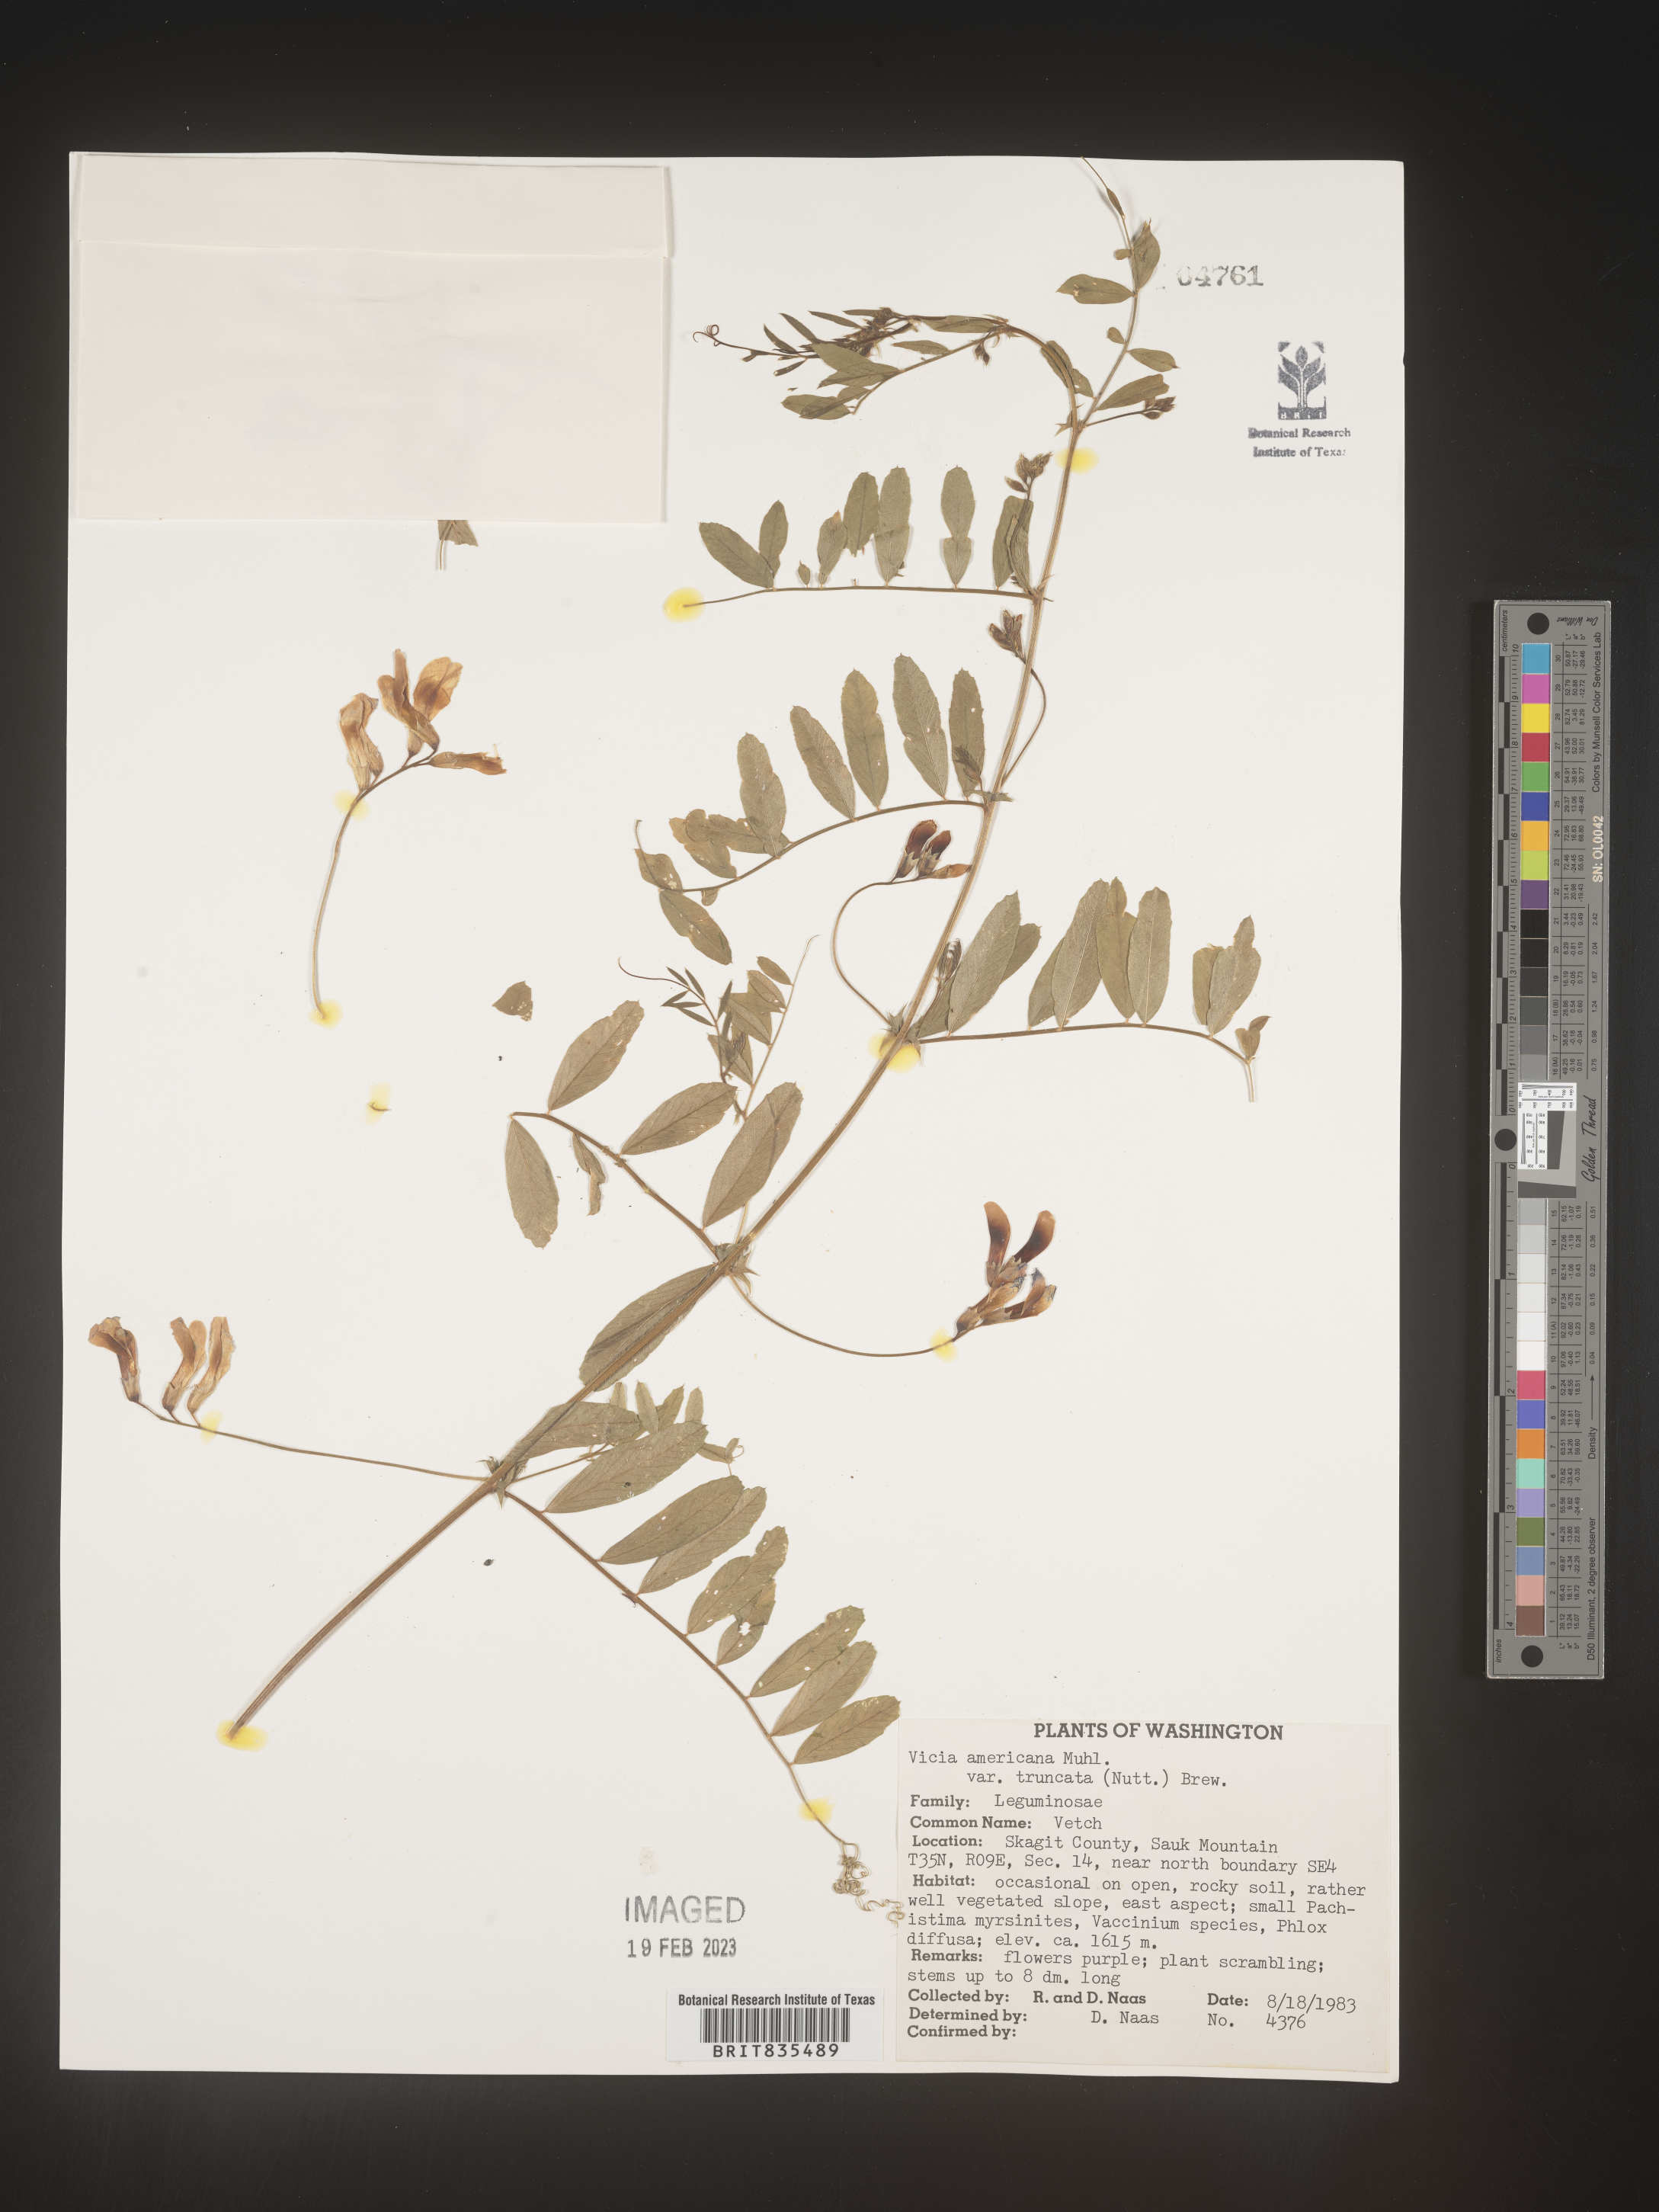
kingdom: Plantae
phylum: Tracheophyta
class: Magnoliopsida
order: Fabales
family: Fabaceae
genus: Vicia
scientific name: Vicia americana
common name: American vetch
